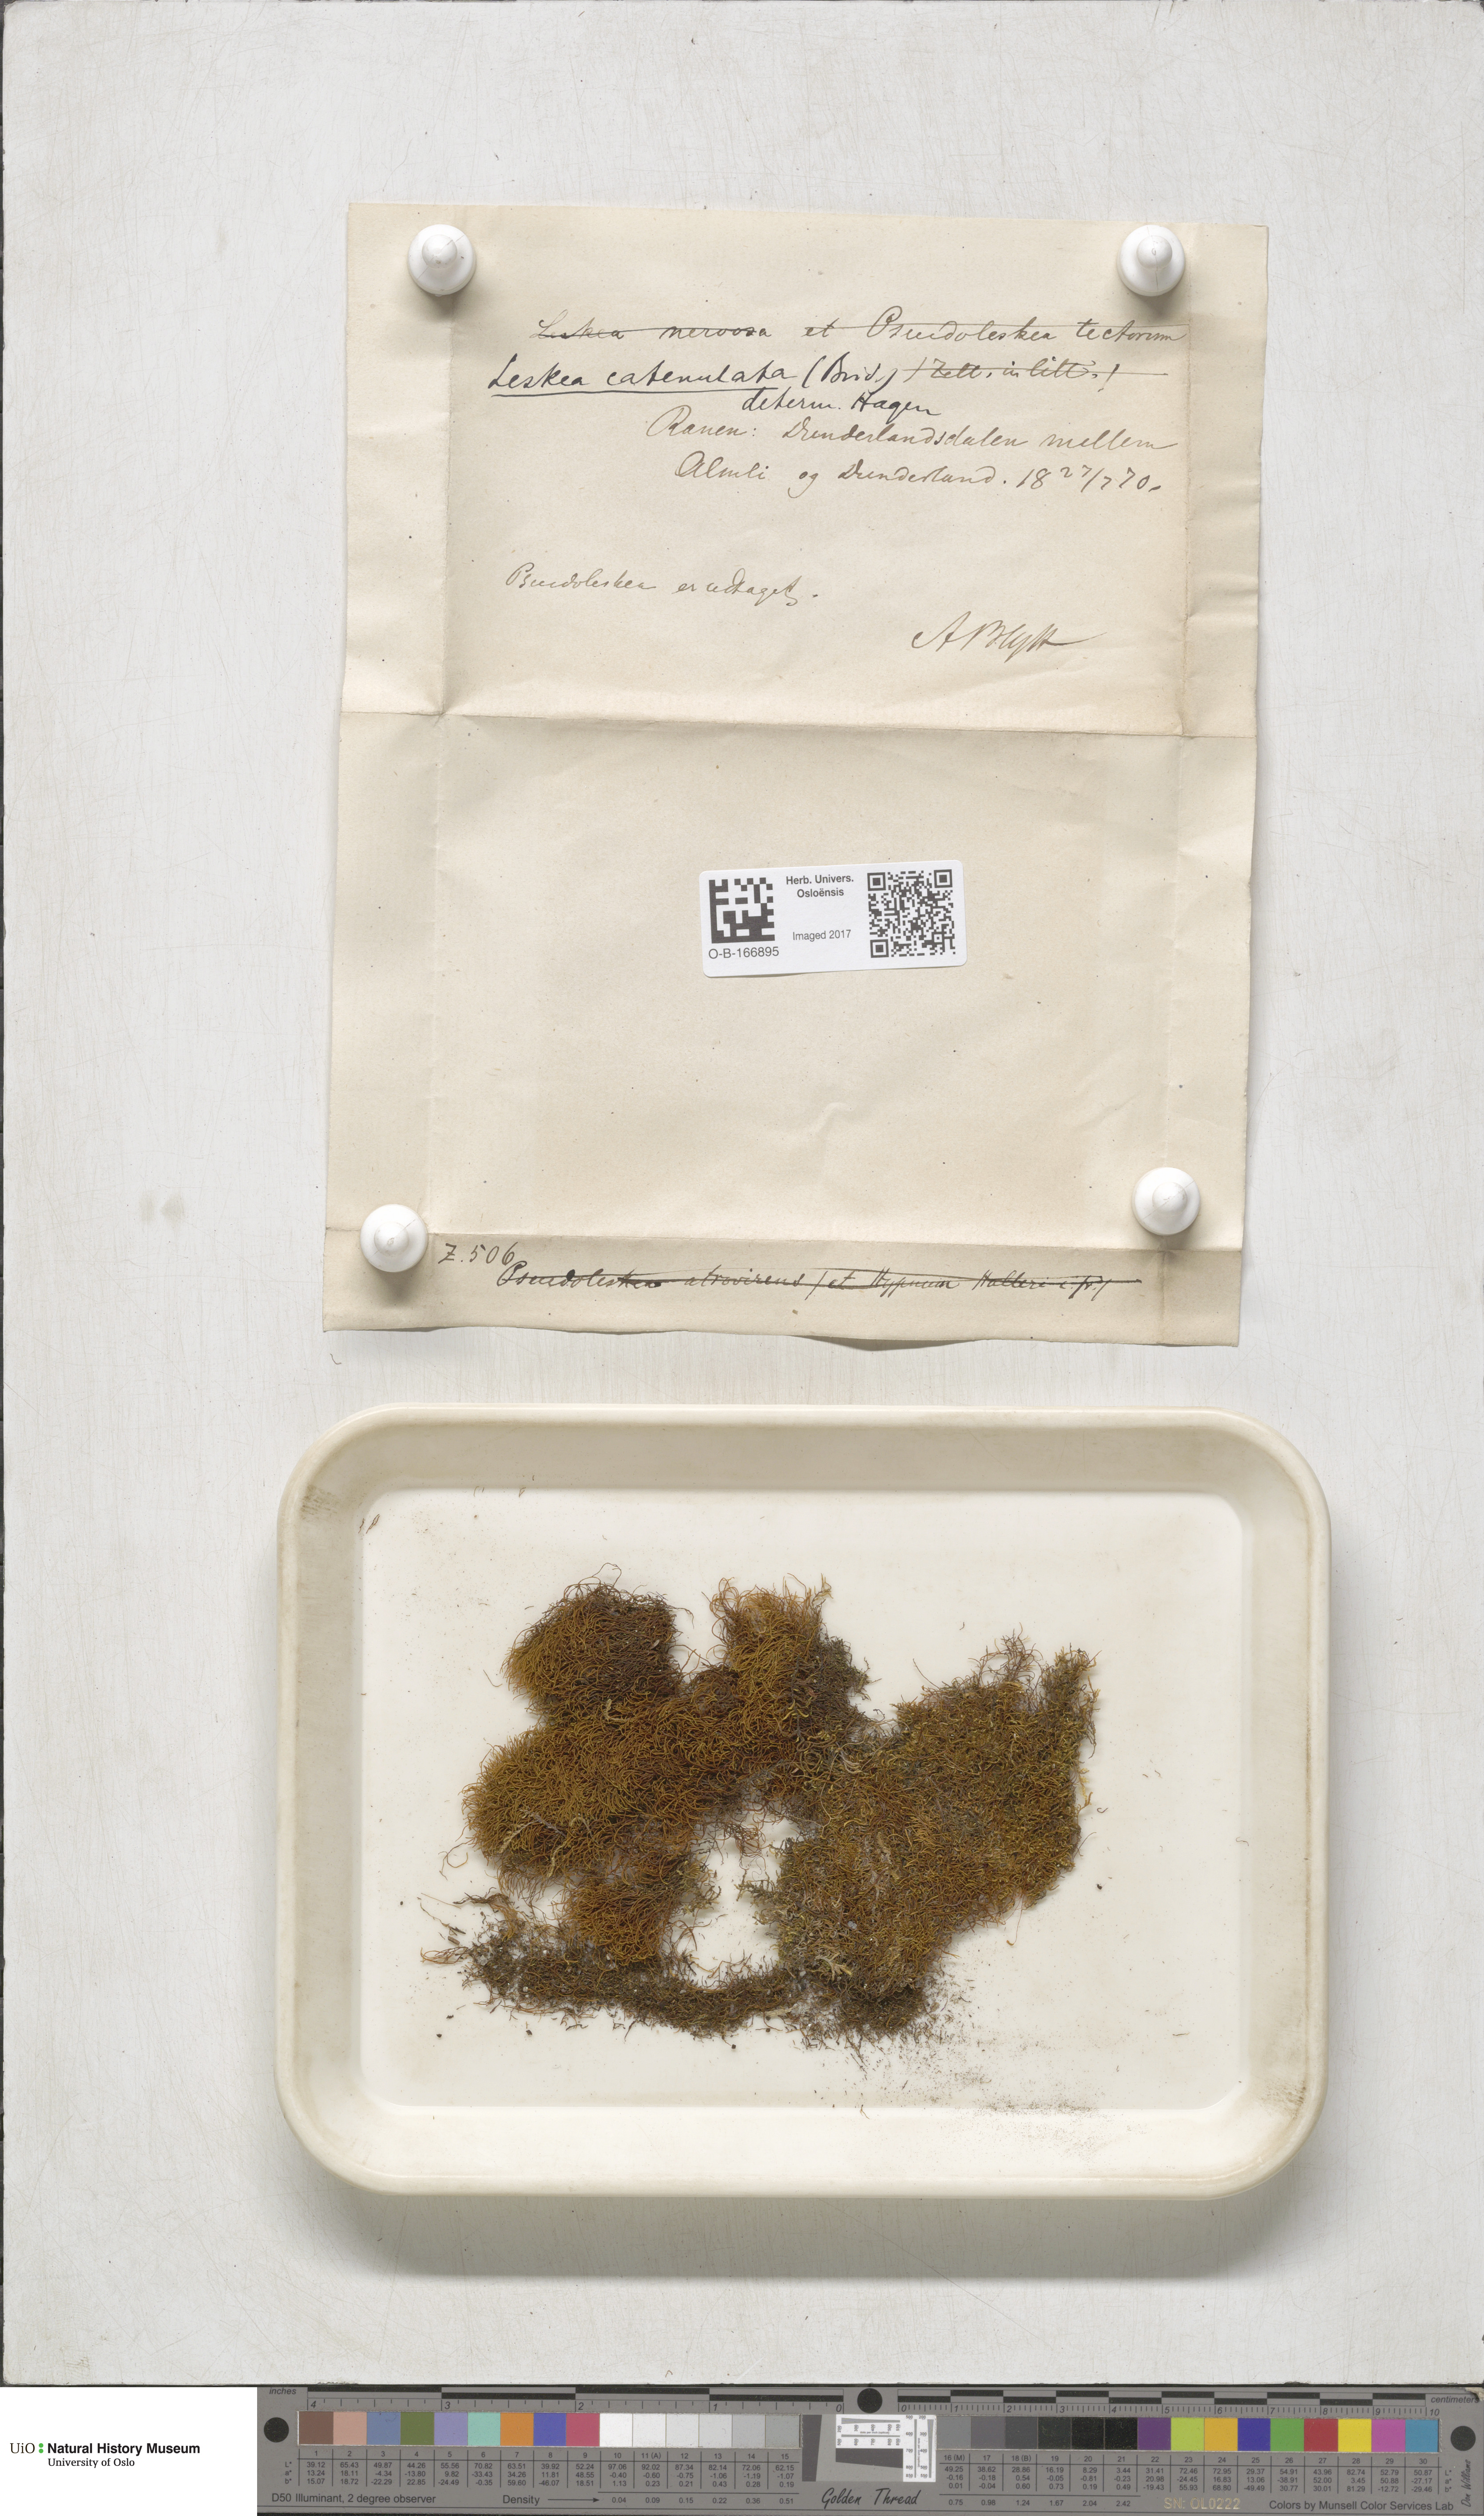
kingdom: Plantae
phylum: Bryophyta
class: Bryopsida
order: Hypnales
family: Pseudoleskeellaceae
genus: Pseudoleskeella
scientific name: Pseudoleskeella catenulata
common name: Chained leskea
